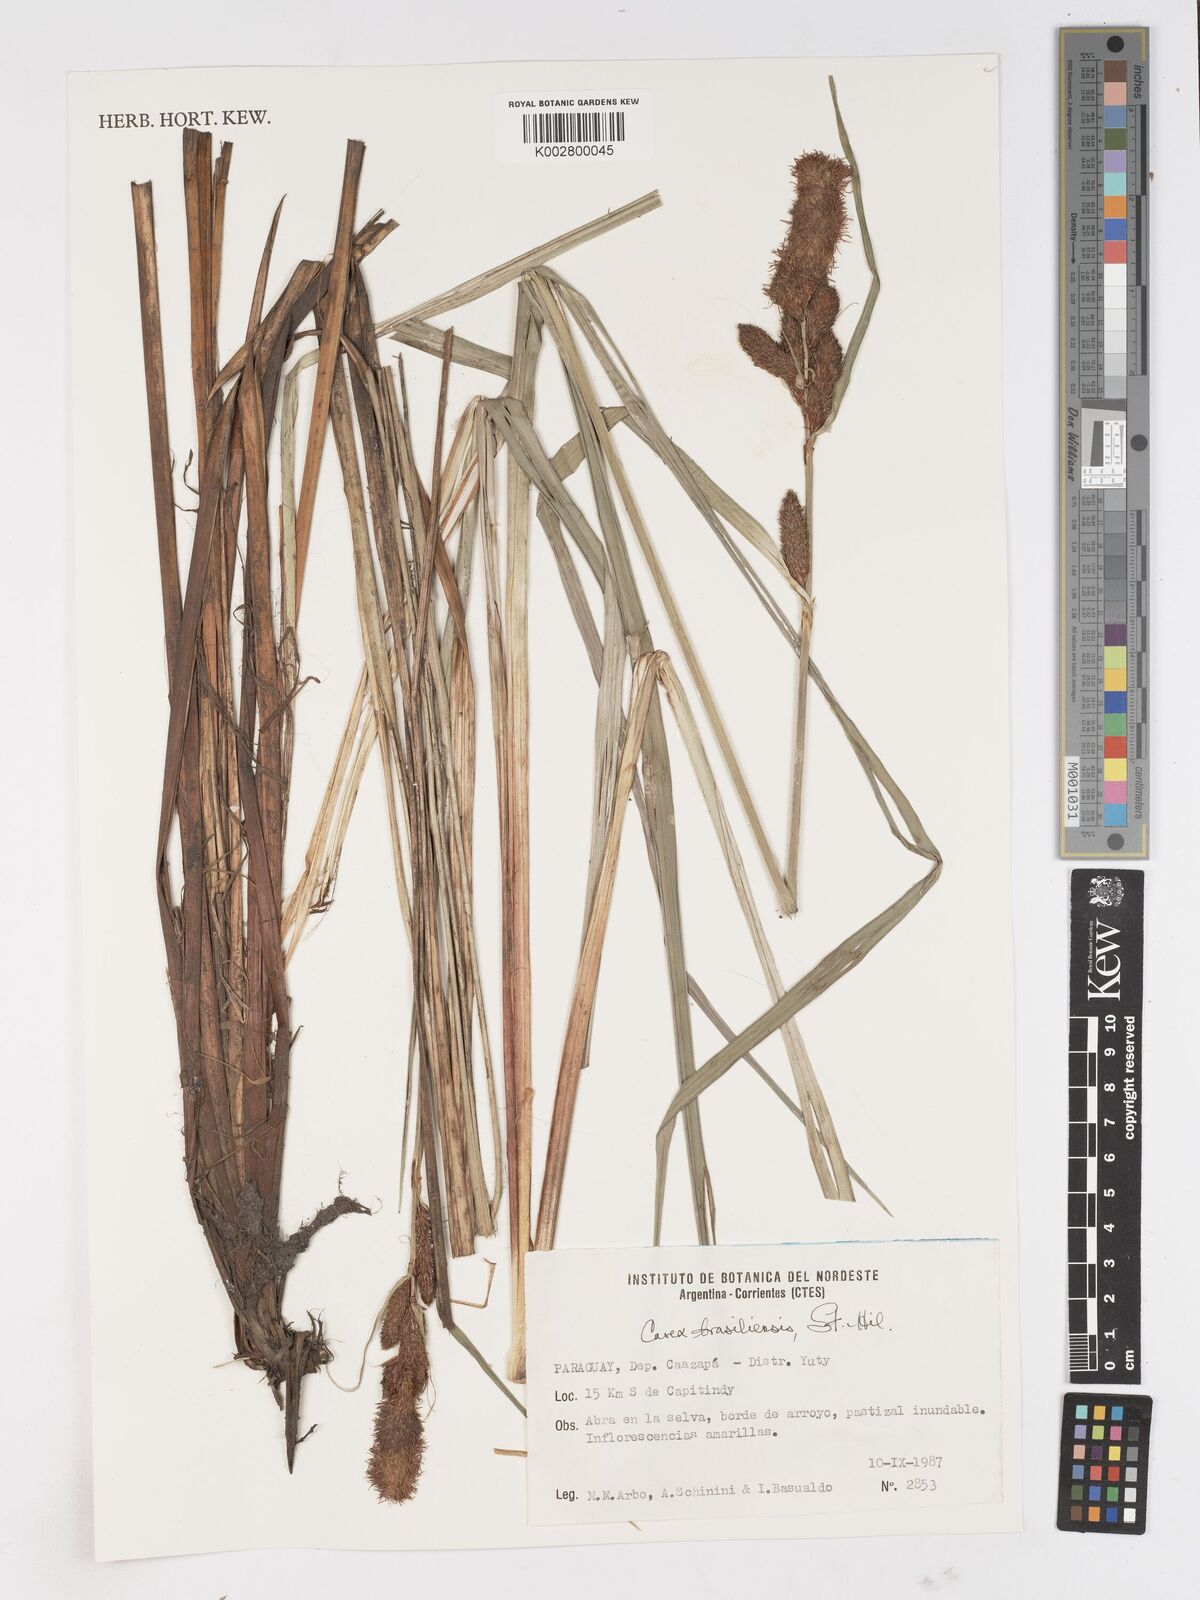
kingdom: Plantae
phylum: Tracheophyta
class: Liliopsida
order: Poales
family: Cyperaceae
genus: Carex
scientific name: Carex brasiliensis
